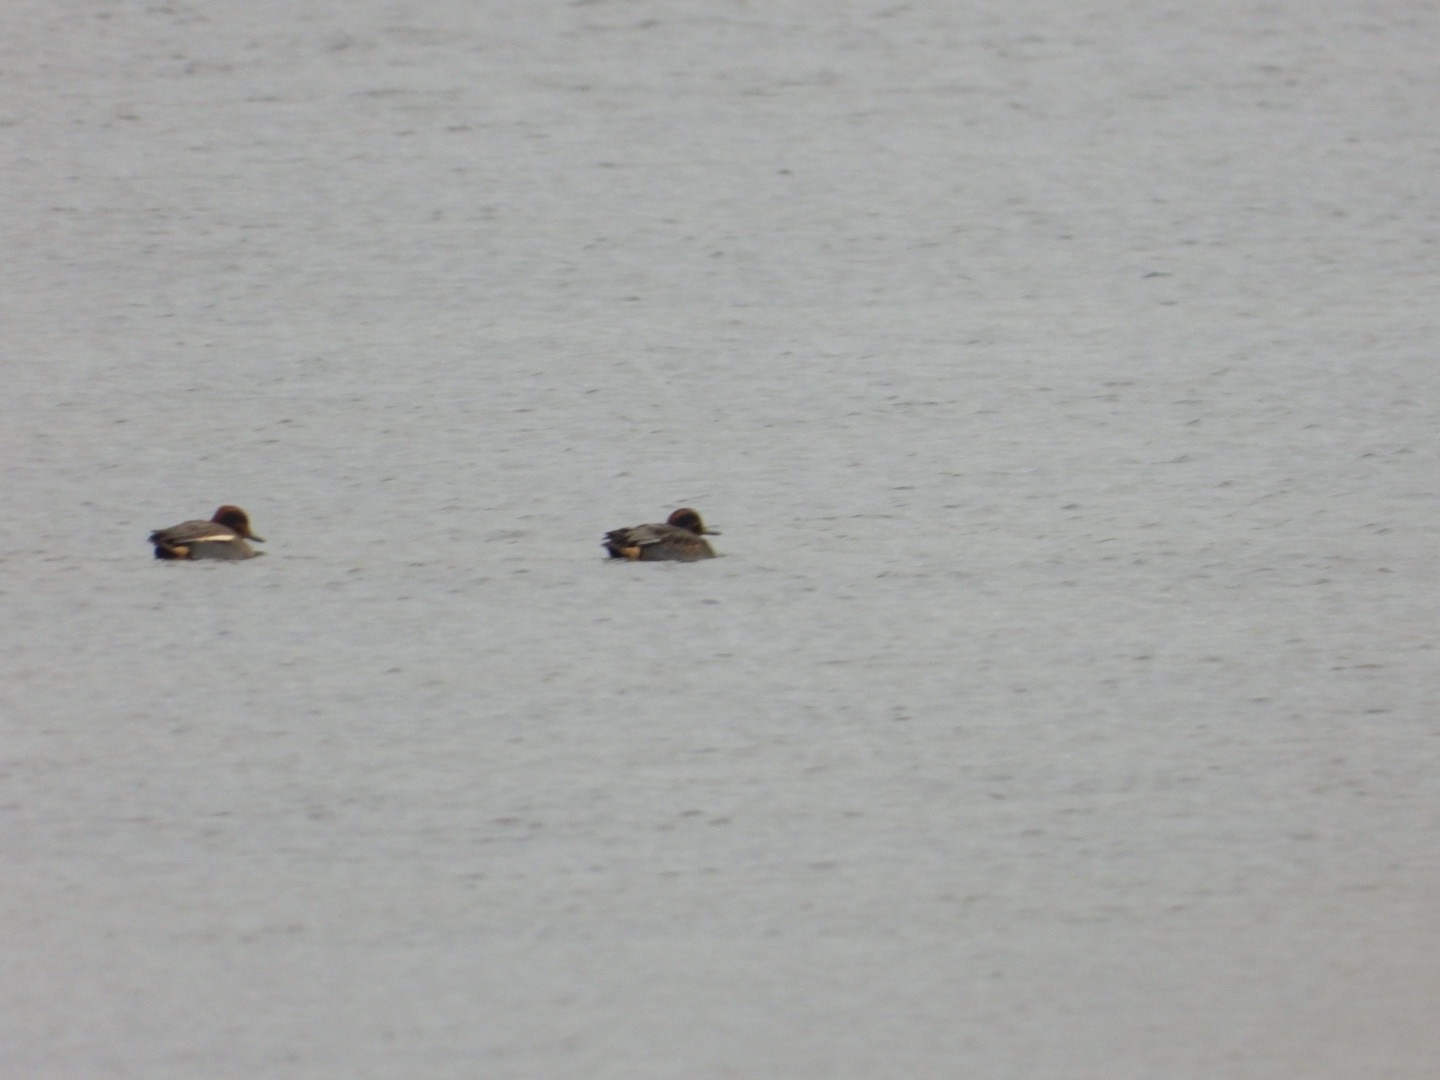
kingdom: Animalia
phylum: Chordata
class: Aves
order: Anseriformes
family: Anatidae
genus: Anas
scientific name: Anas crecca
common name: Krikand
